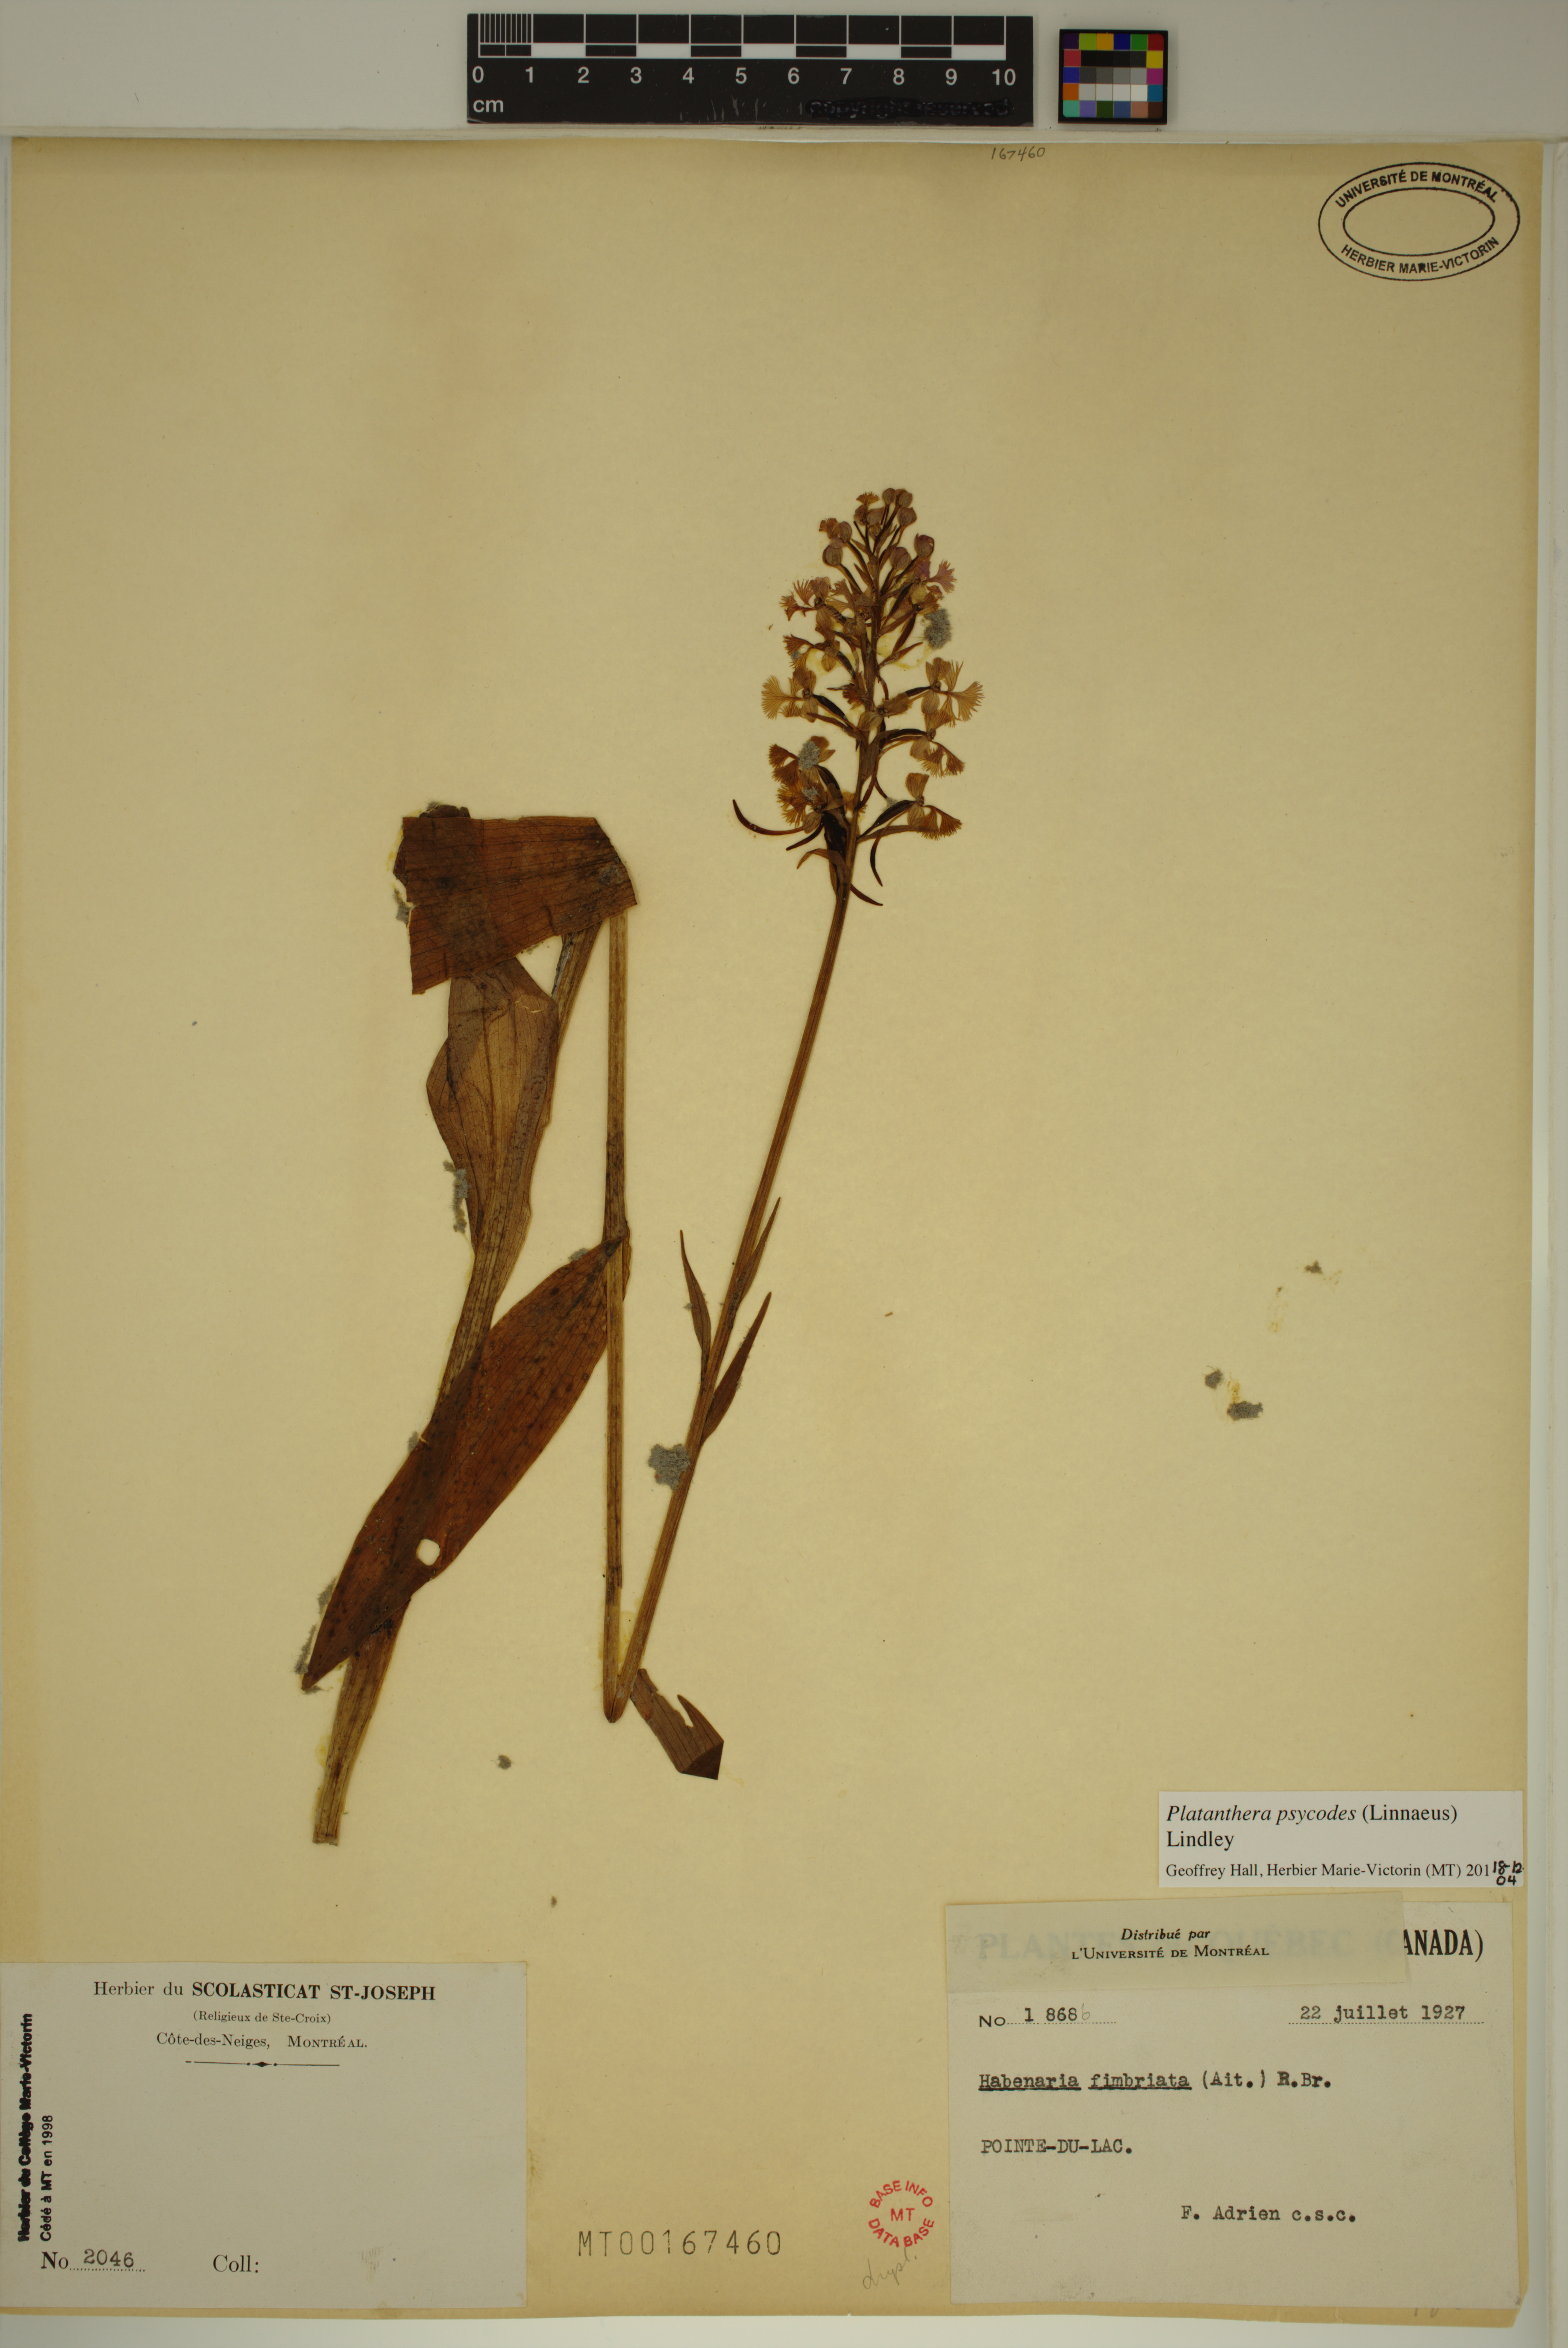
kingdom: Plantae
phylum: Tracheophyta
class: Liliopsida
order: Asparagales
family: Orchidaceae
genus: Platanthera
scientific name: Platanthera psycodes
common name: Lesser purple fringed orchid
